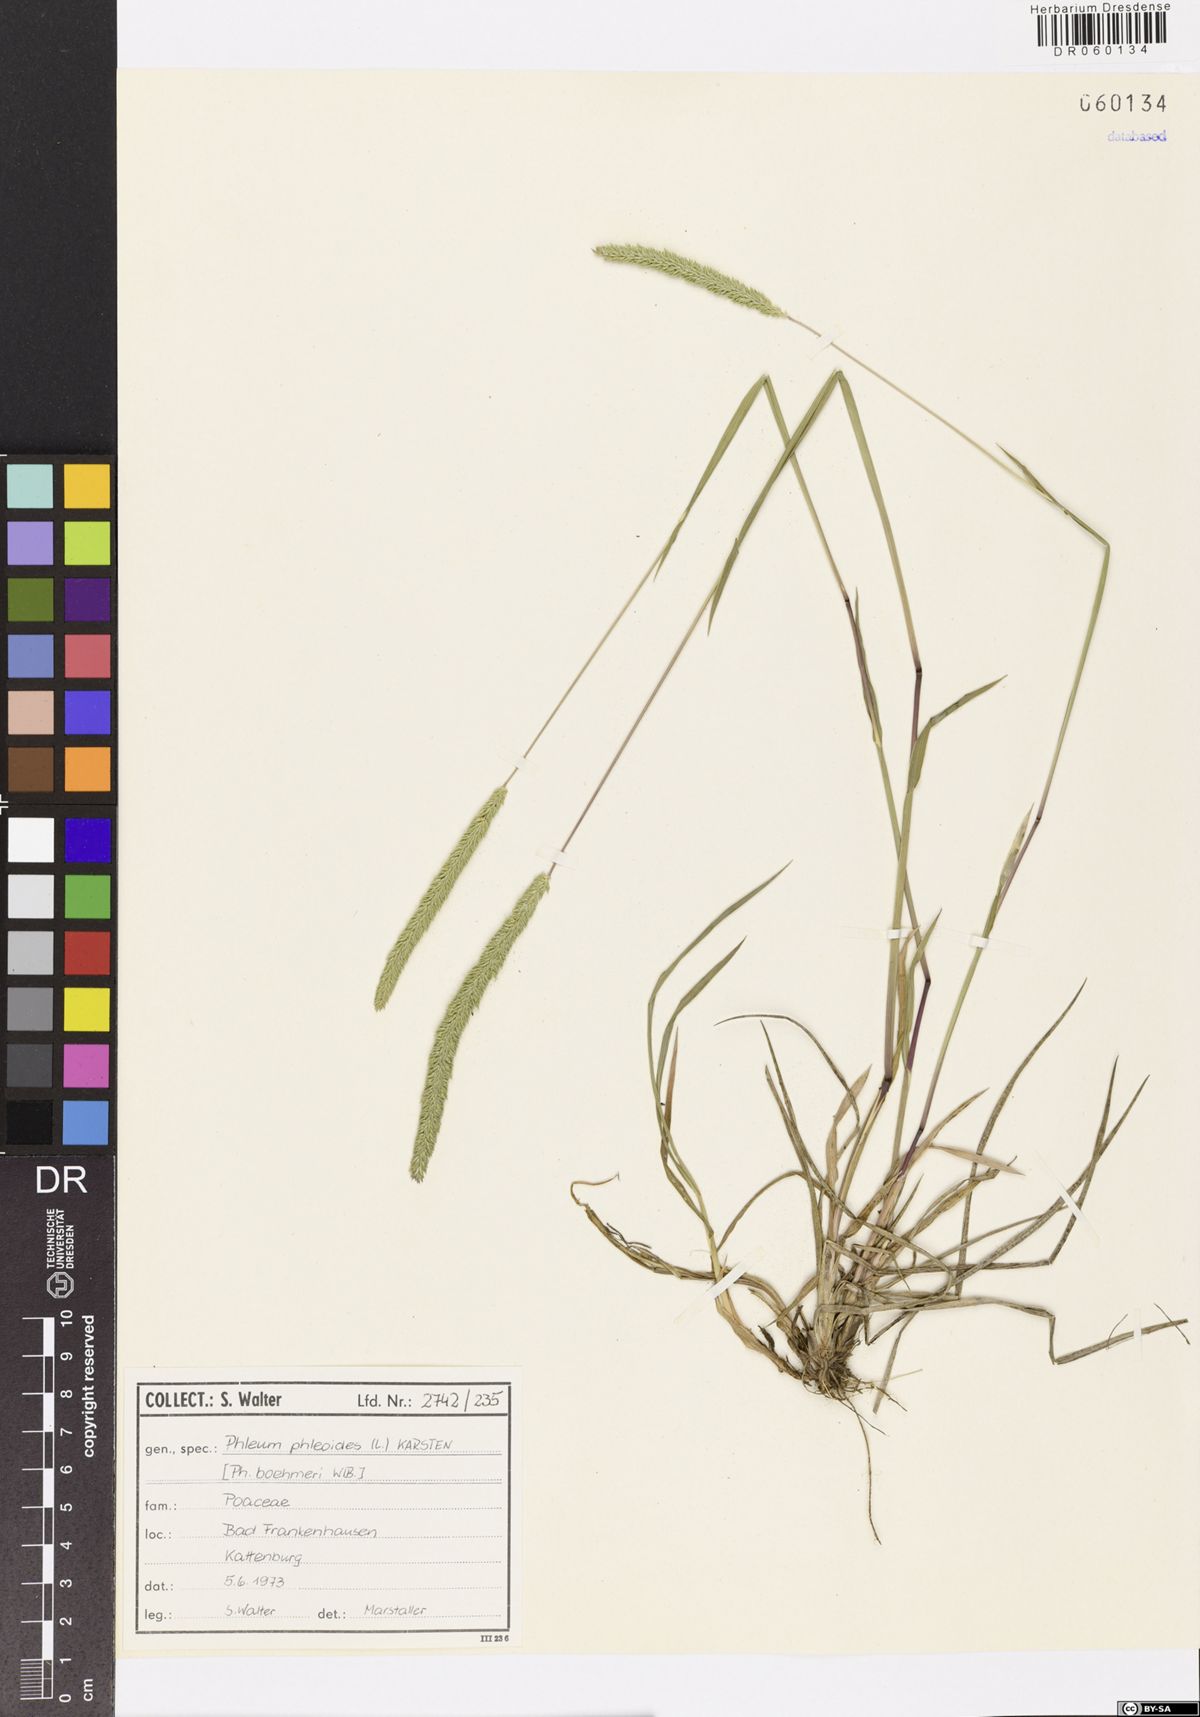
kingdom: Plantae
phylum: Tracheophyta
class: Liliopsida
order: Poales
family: Poaceae
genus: Phleum
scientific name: Phleum phleoides
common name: Purple-stem cat's-tail
